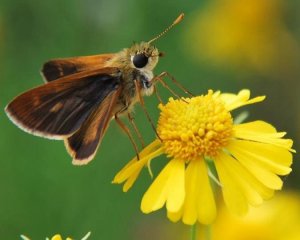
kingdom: Animalia
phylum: Arthropoda
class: Insecta
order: Lepidoptera
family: Hesperiidae
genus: Wallengrenia
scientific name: Wallengrenia otho
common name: Southern Broken-Dash
